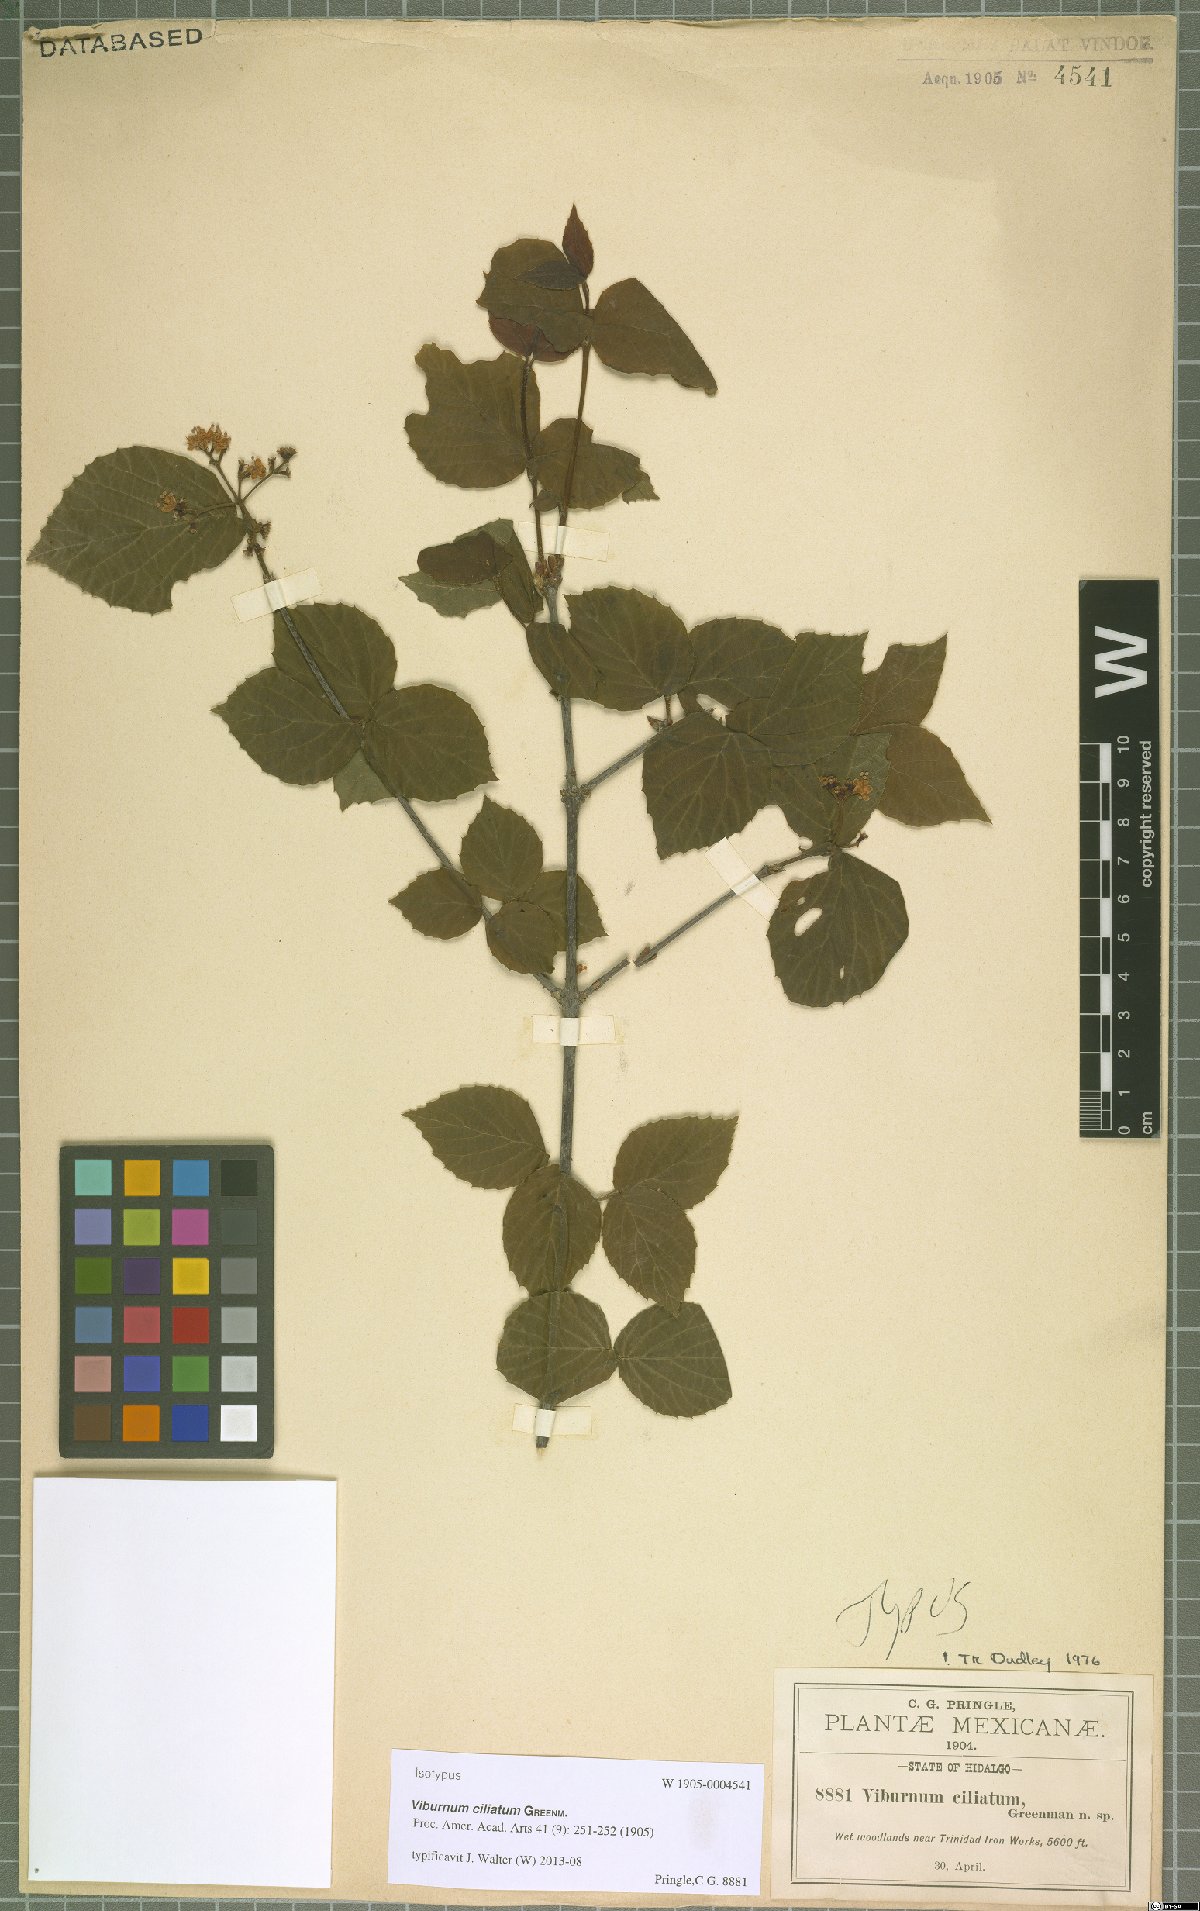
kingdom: Plantae
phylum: Tracheophyta
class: Magnoliopsida
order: Dipsacales
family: Viburnaceae
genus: Viburnum
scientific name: Viburnum ciliatum
